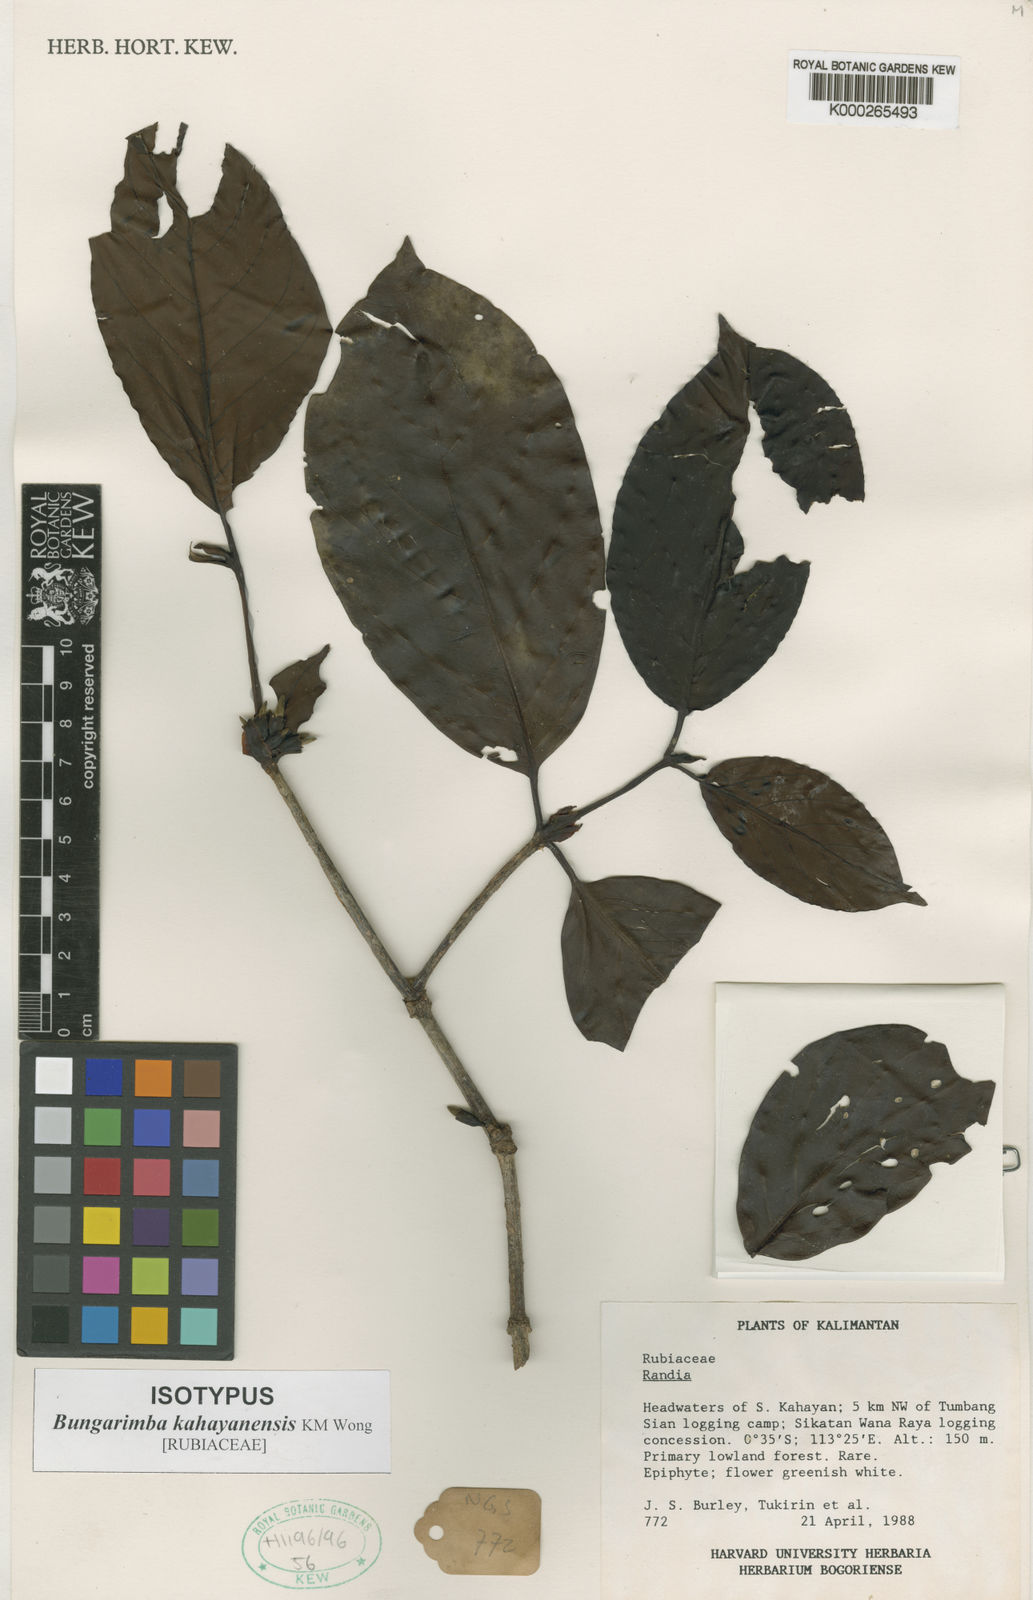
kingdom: Plantae
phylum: Tracheophyta
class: Magnoliopsida
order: Gentianales
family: Rubiaceae
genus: Bungarimba
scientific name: Bungarimba kahayanensis
